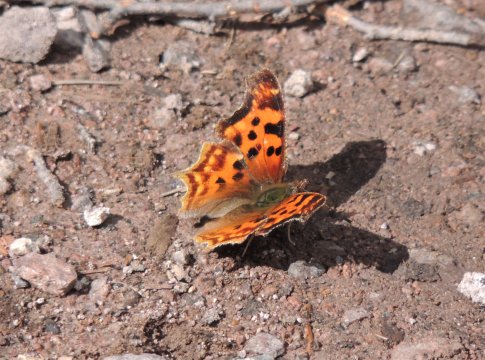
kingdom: Animalia
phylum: Arthropoda
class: Insecta
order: Lepidoptera
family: Nymphalidae
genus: Polygonia
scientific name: Polygonia satyrus
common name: Satyr Comma
